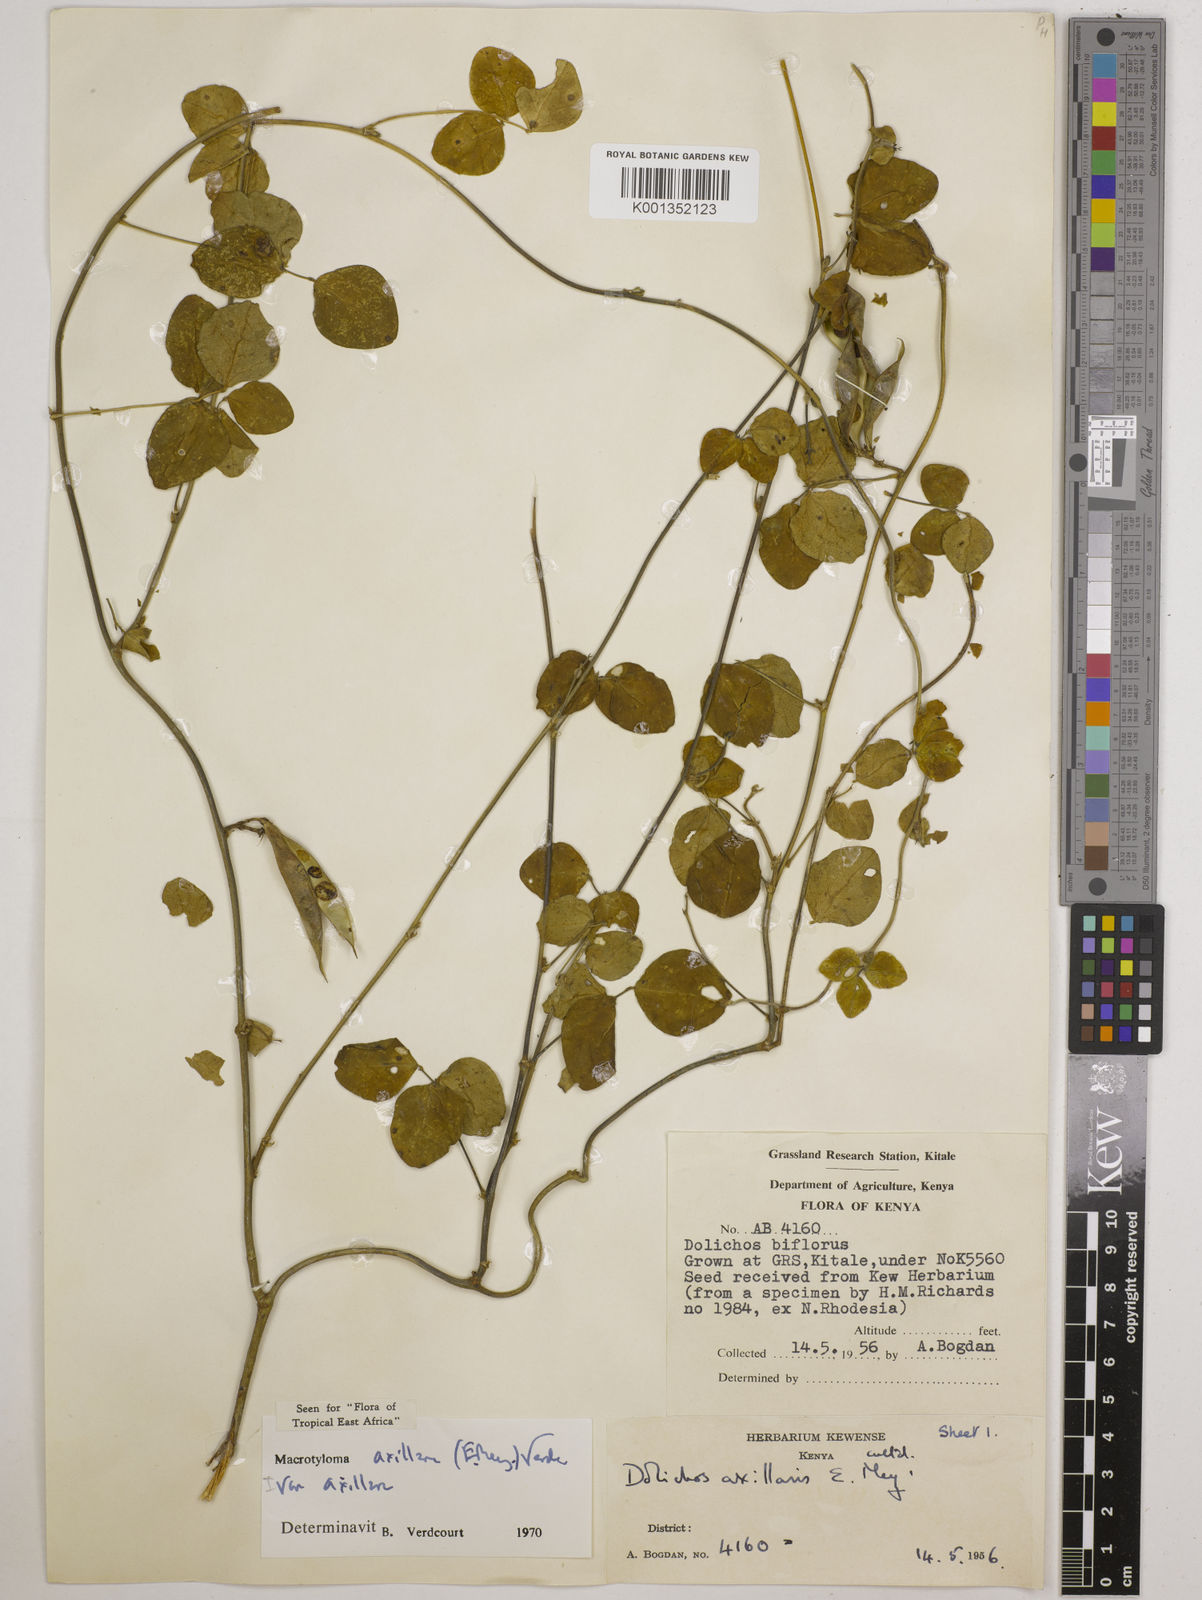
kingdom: Plantae
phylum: Tracheophyta
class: Magnoliopsida
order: Fabales
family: Fabaceae
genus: Macrotyloma
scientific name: Macrotyloma axillare
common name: Perennial horsegram
